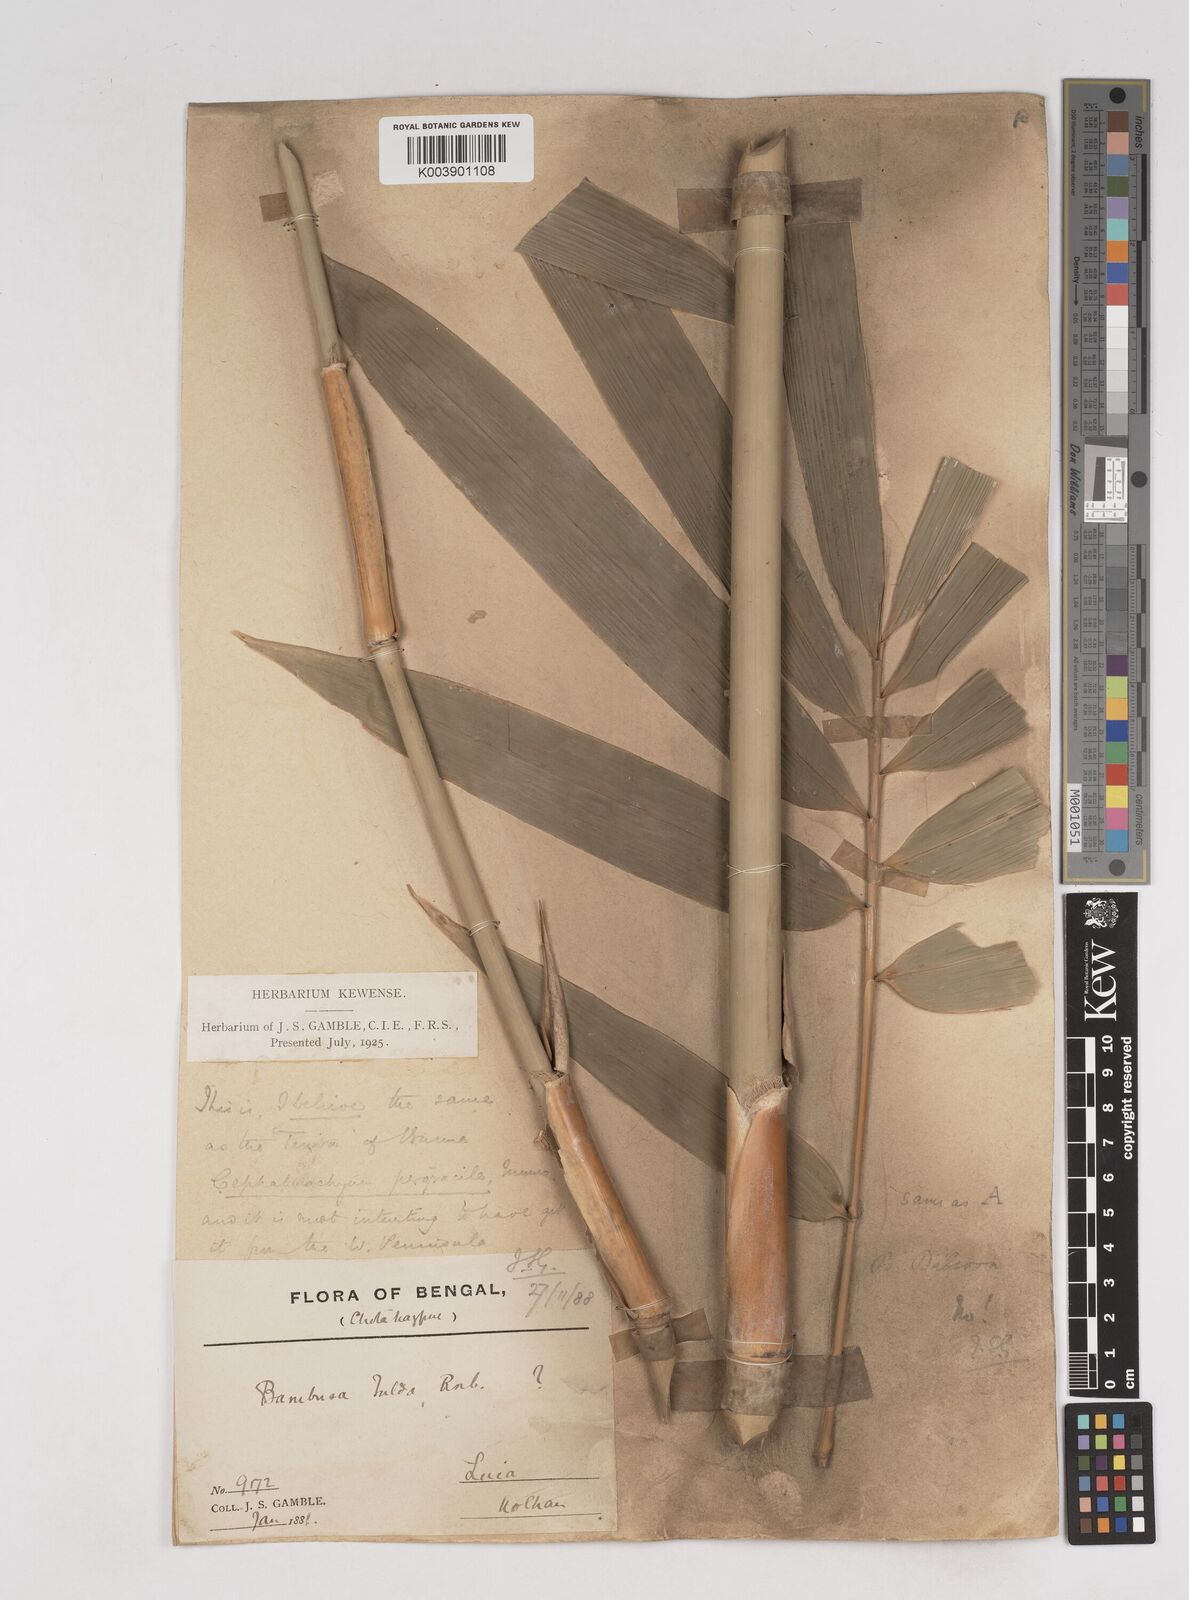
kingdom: Plantae
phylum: Tracheophyta
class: Liliopsida
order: Poales
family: Poaceae
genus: Schizostachyum
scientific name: Schizostachyum pergracile
